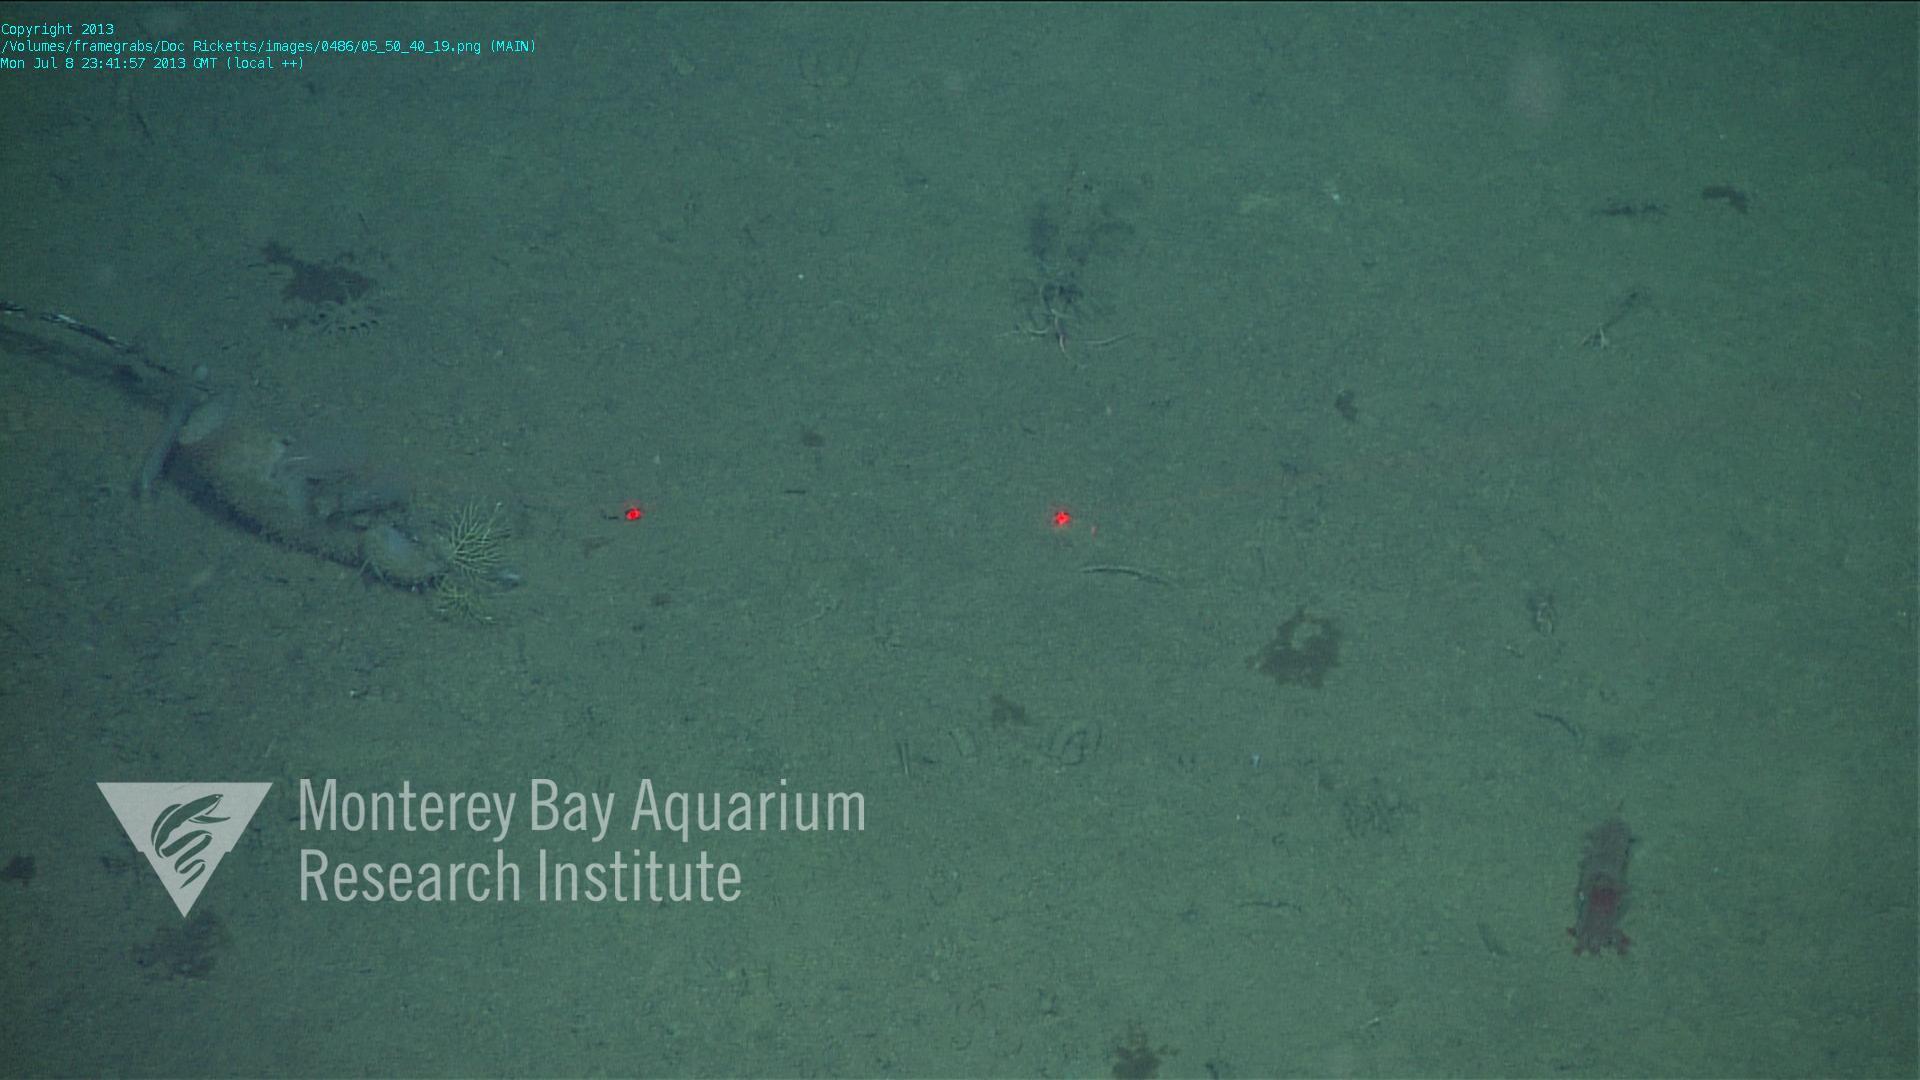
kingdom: Animalia
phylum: Porifera
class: Hexactinellida
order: Lyssacinosida
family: Rossellidae
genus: Bathydorus
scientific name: Bathydorus spinosus
